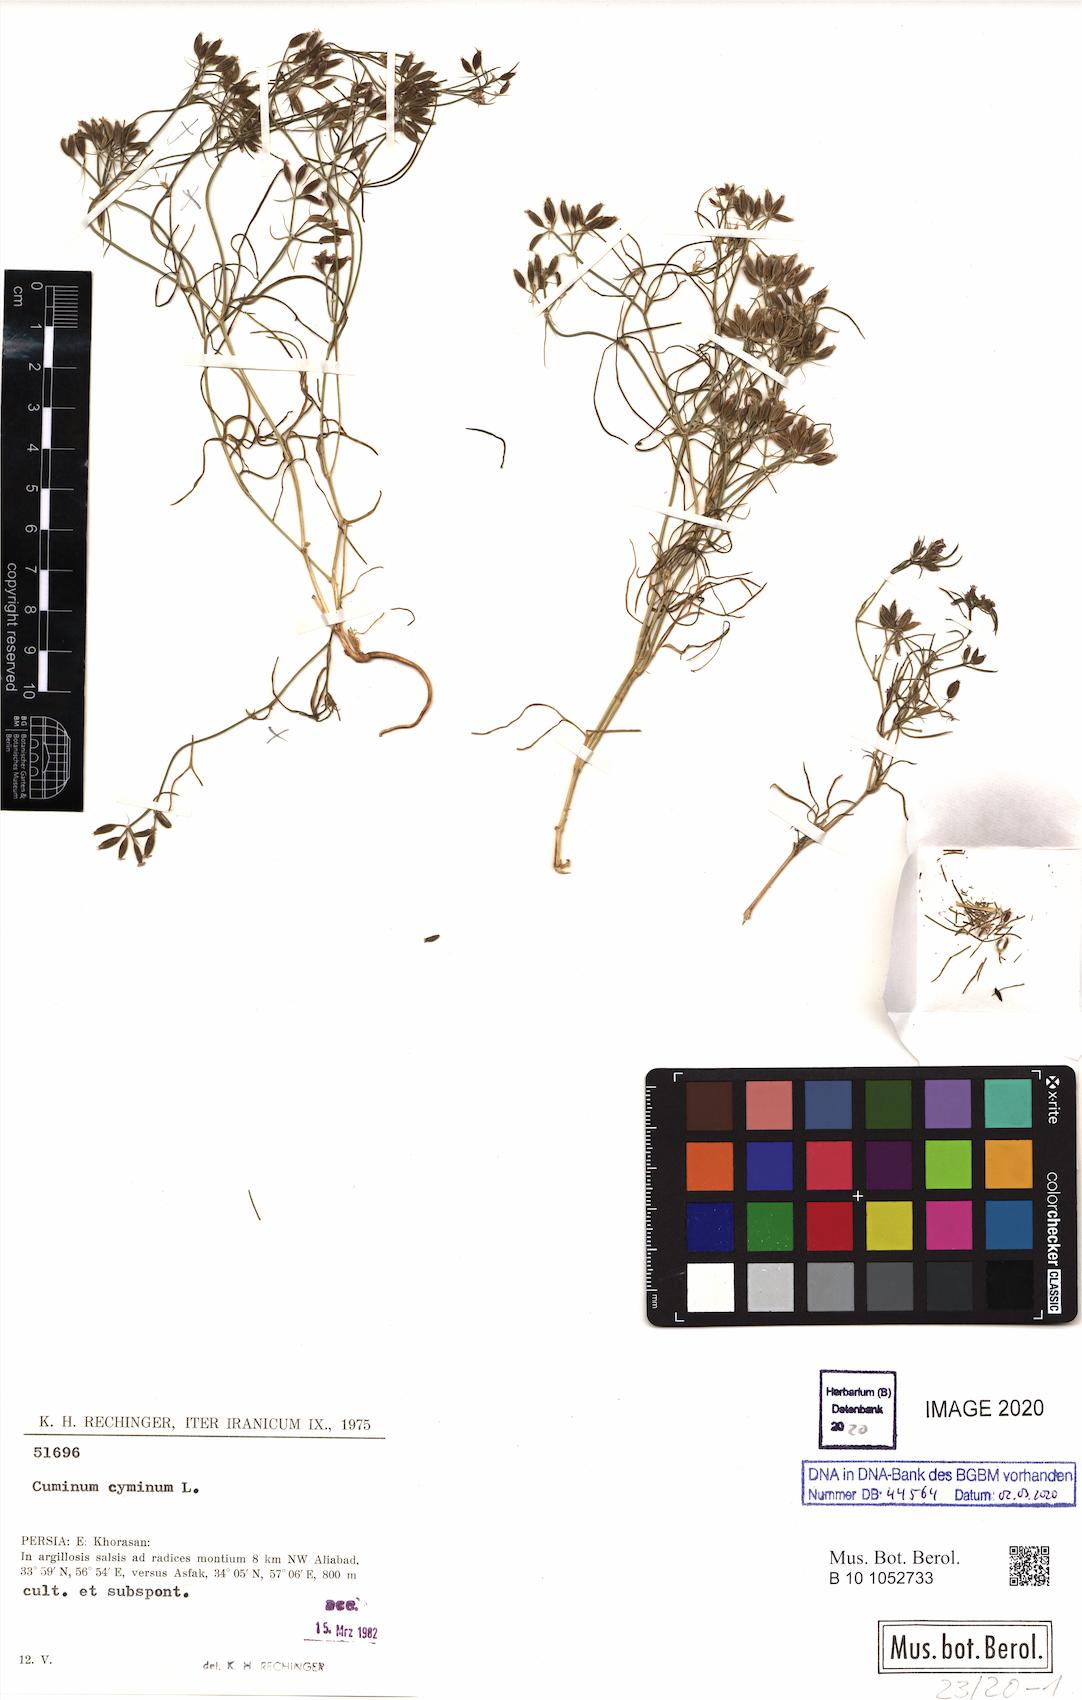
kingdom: Plantae
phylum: Tracheophyta
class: Magnoliopsida
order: Apiales
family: Apiaceae
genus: Cuminum
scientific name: Cuminum cyminum
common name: Cumin
